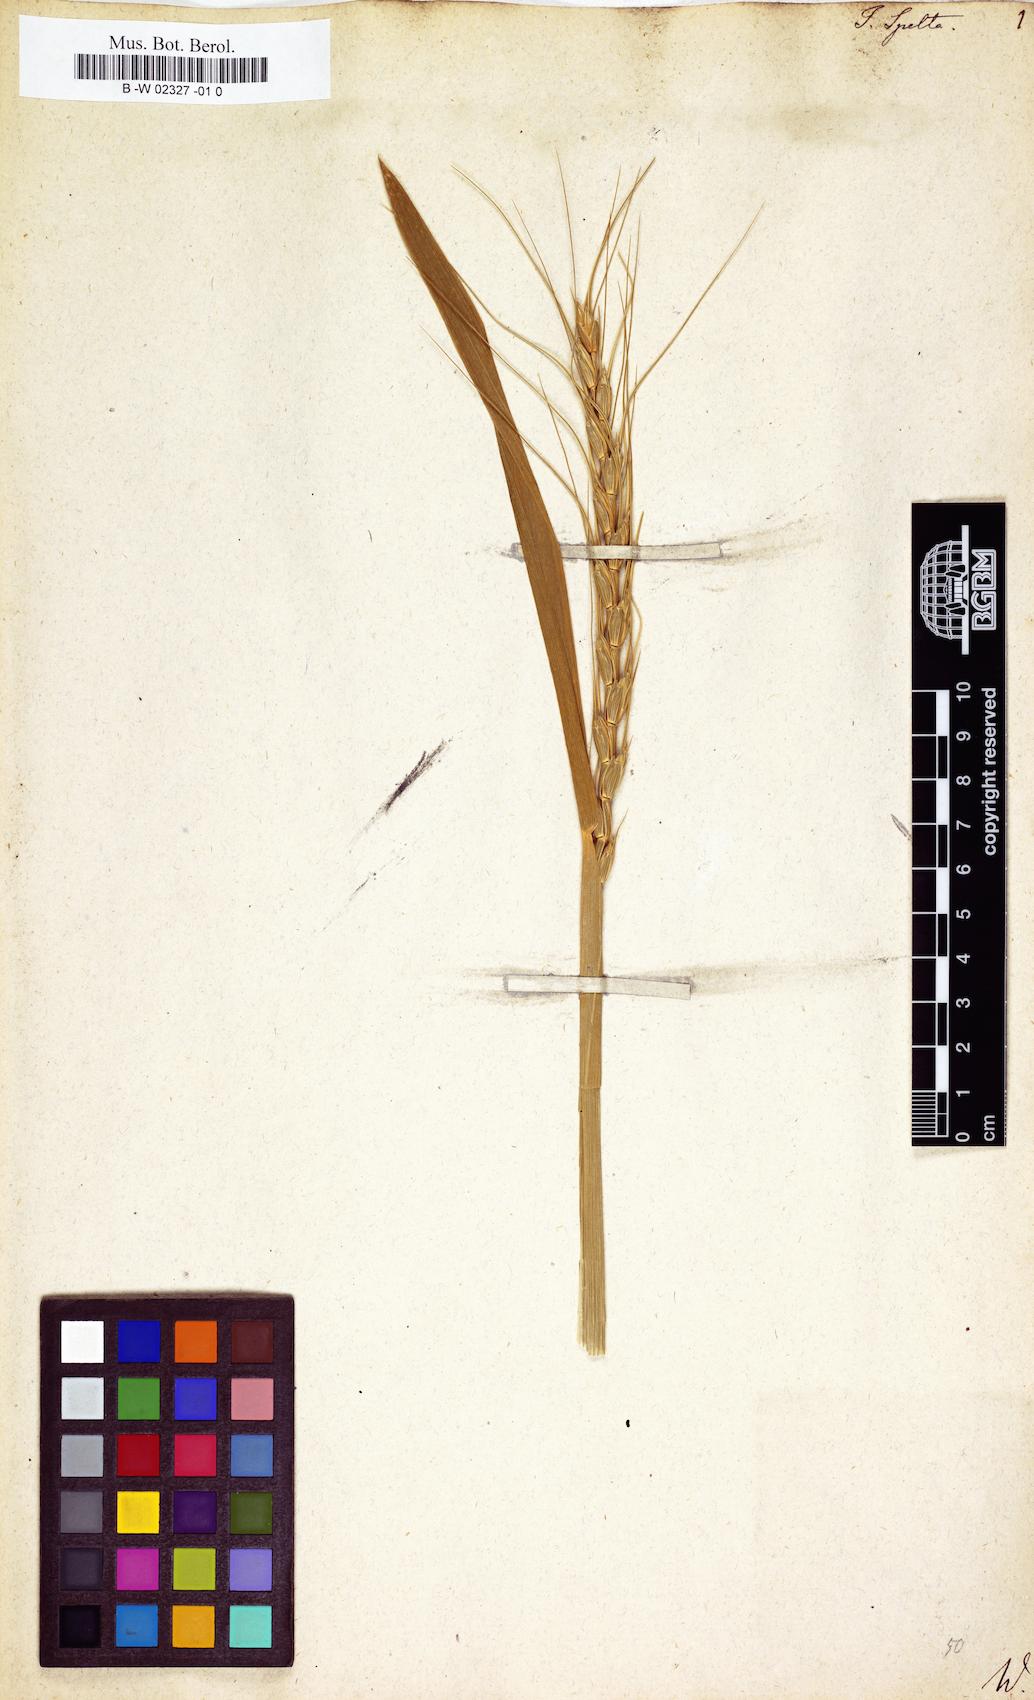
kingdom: Plantae
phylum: Tracheophyta
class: Liliopsida
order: Poales
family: Poaceae
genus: Triticum
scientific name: Triticum aestivum
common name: Common wheat
